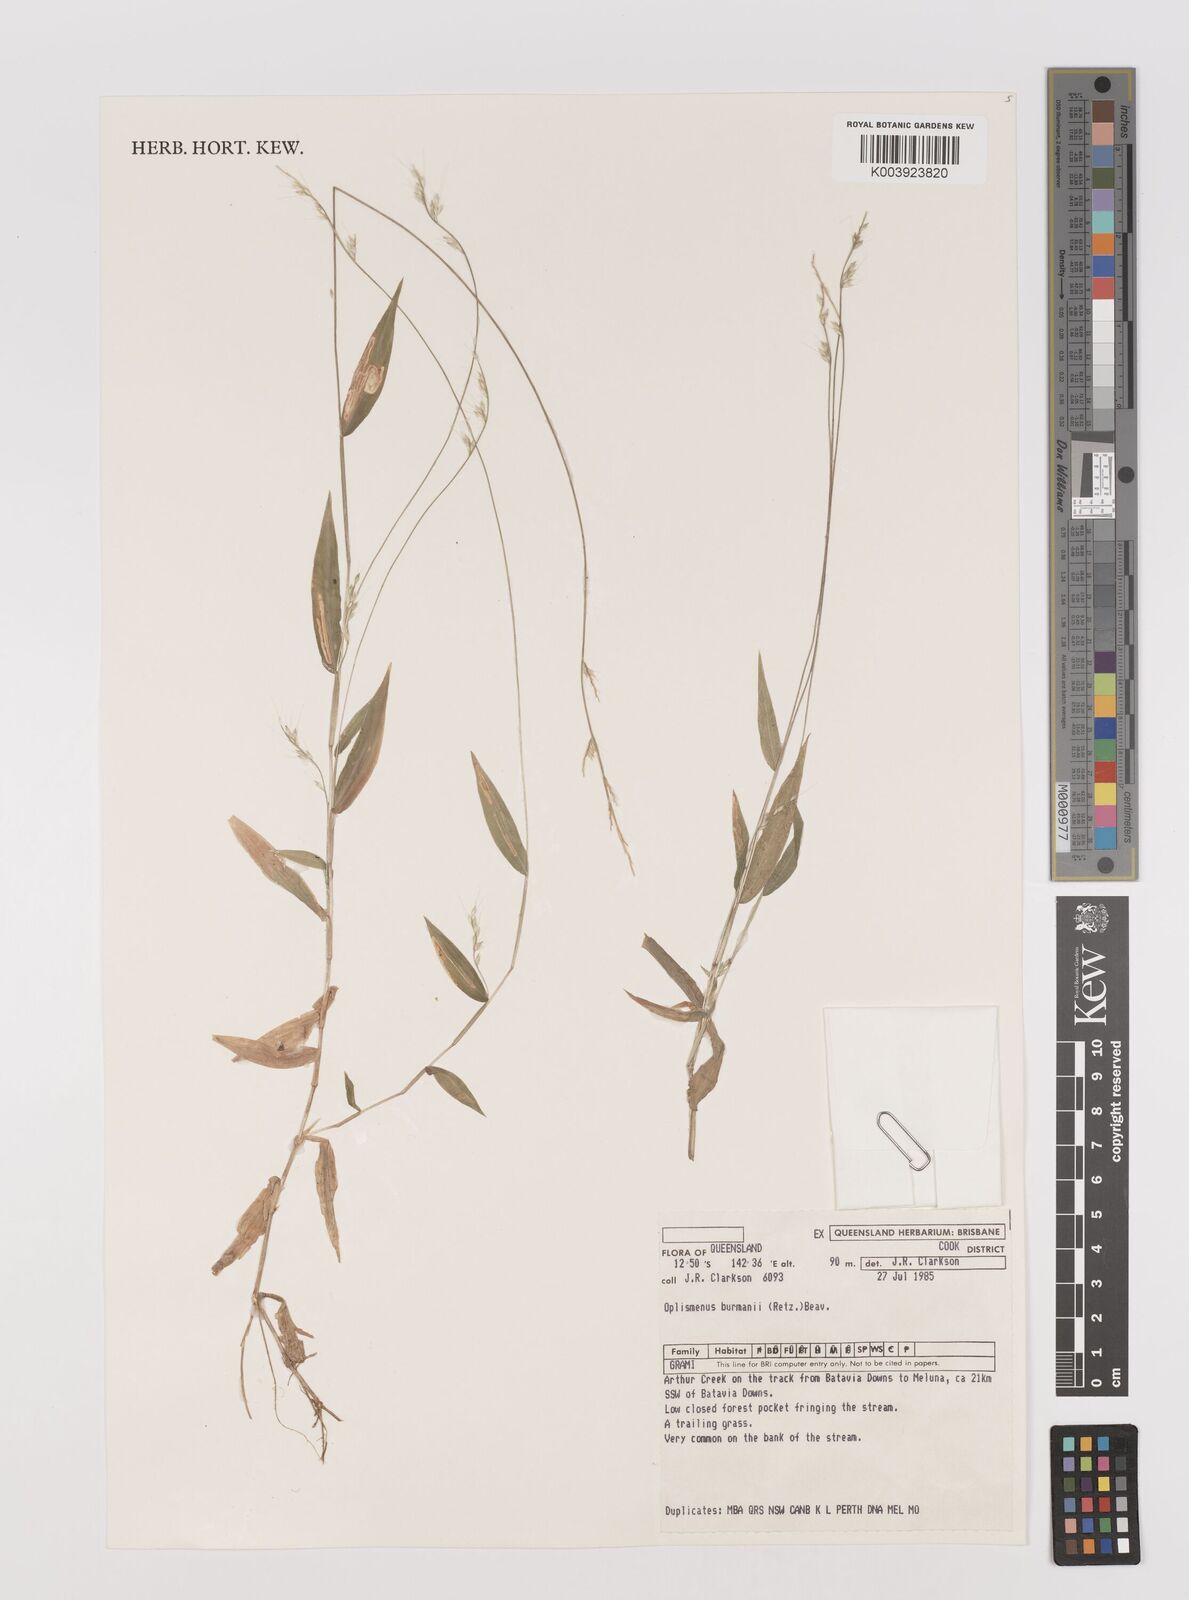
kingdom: Plantae
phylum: Tracheophyta
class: Liliopsida
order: Poales
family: Poaceae
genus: Oplismenus
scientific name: Oplismenus burmanni
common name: Burmann's basketgrass
